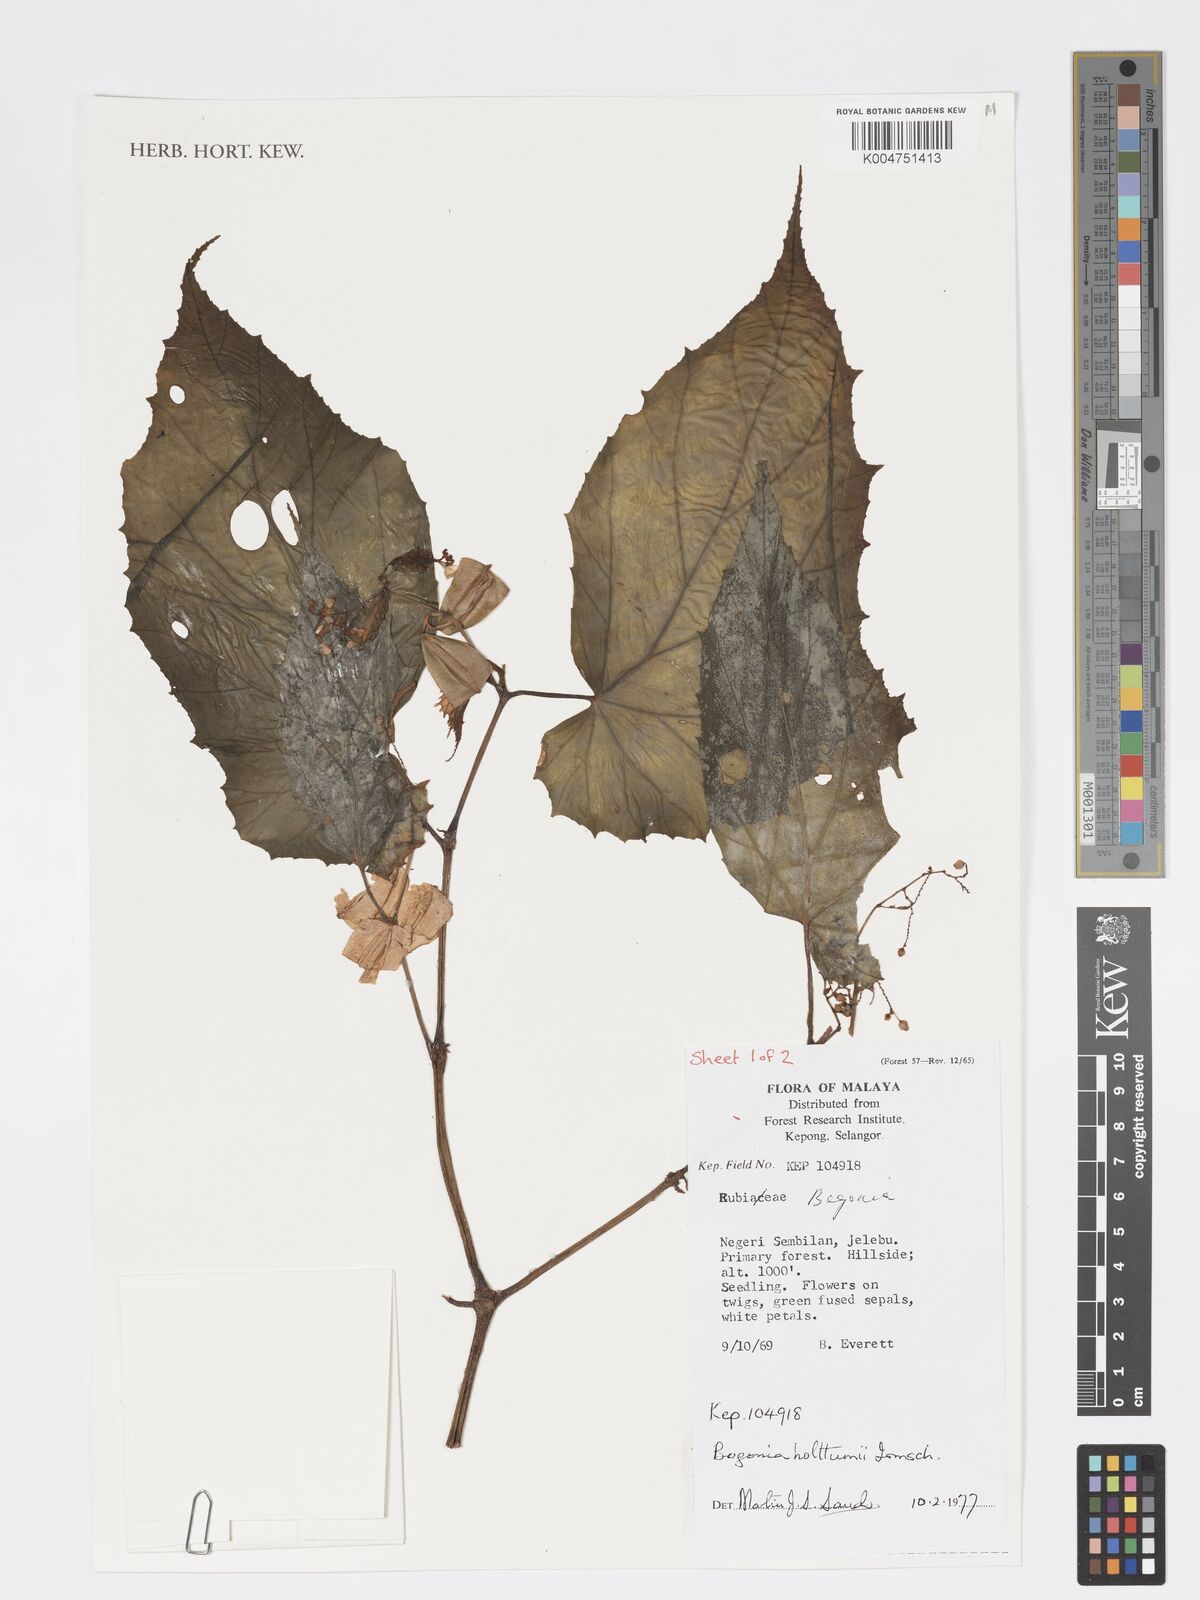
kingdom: Plantae
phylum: Tracheophyta
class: Magnoliopsida
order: Cucurbitales
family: Begoniaceae
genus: Begonia
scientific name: Begonia holttumii
